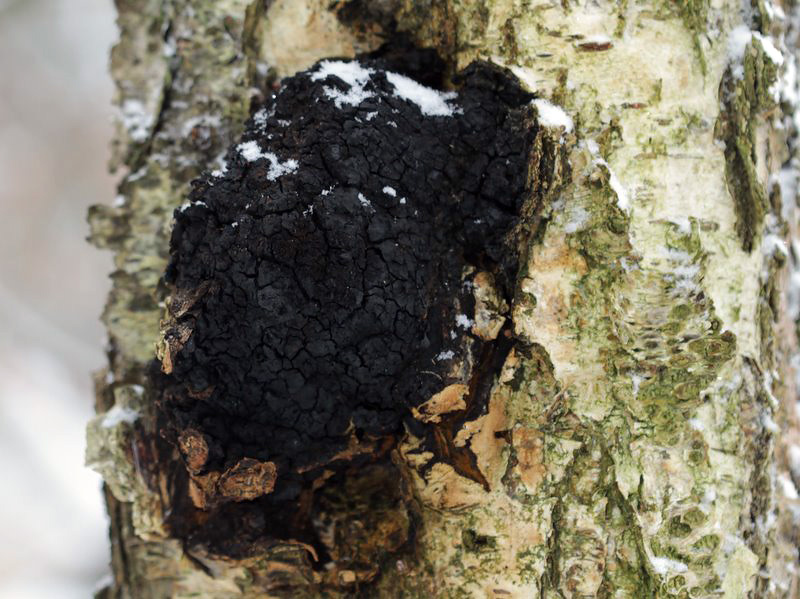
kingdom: Fungi
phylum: Basidiomycota
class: Agaricomycetes
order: Hymenochaetales
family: Hymenochaetaceae
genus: Inonotus
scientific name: Inonotus obliquus
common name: birke-spejlporesvamp
